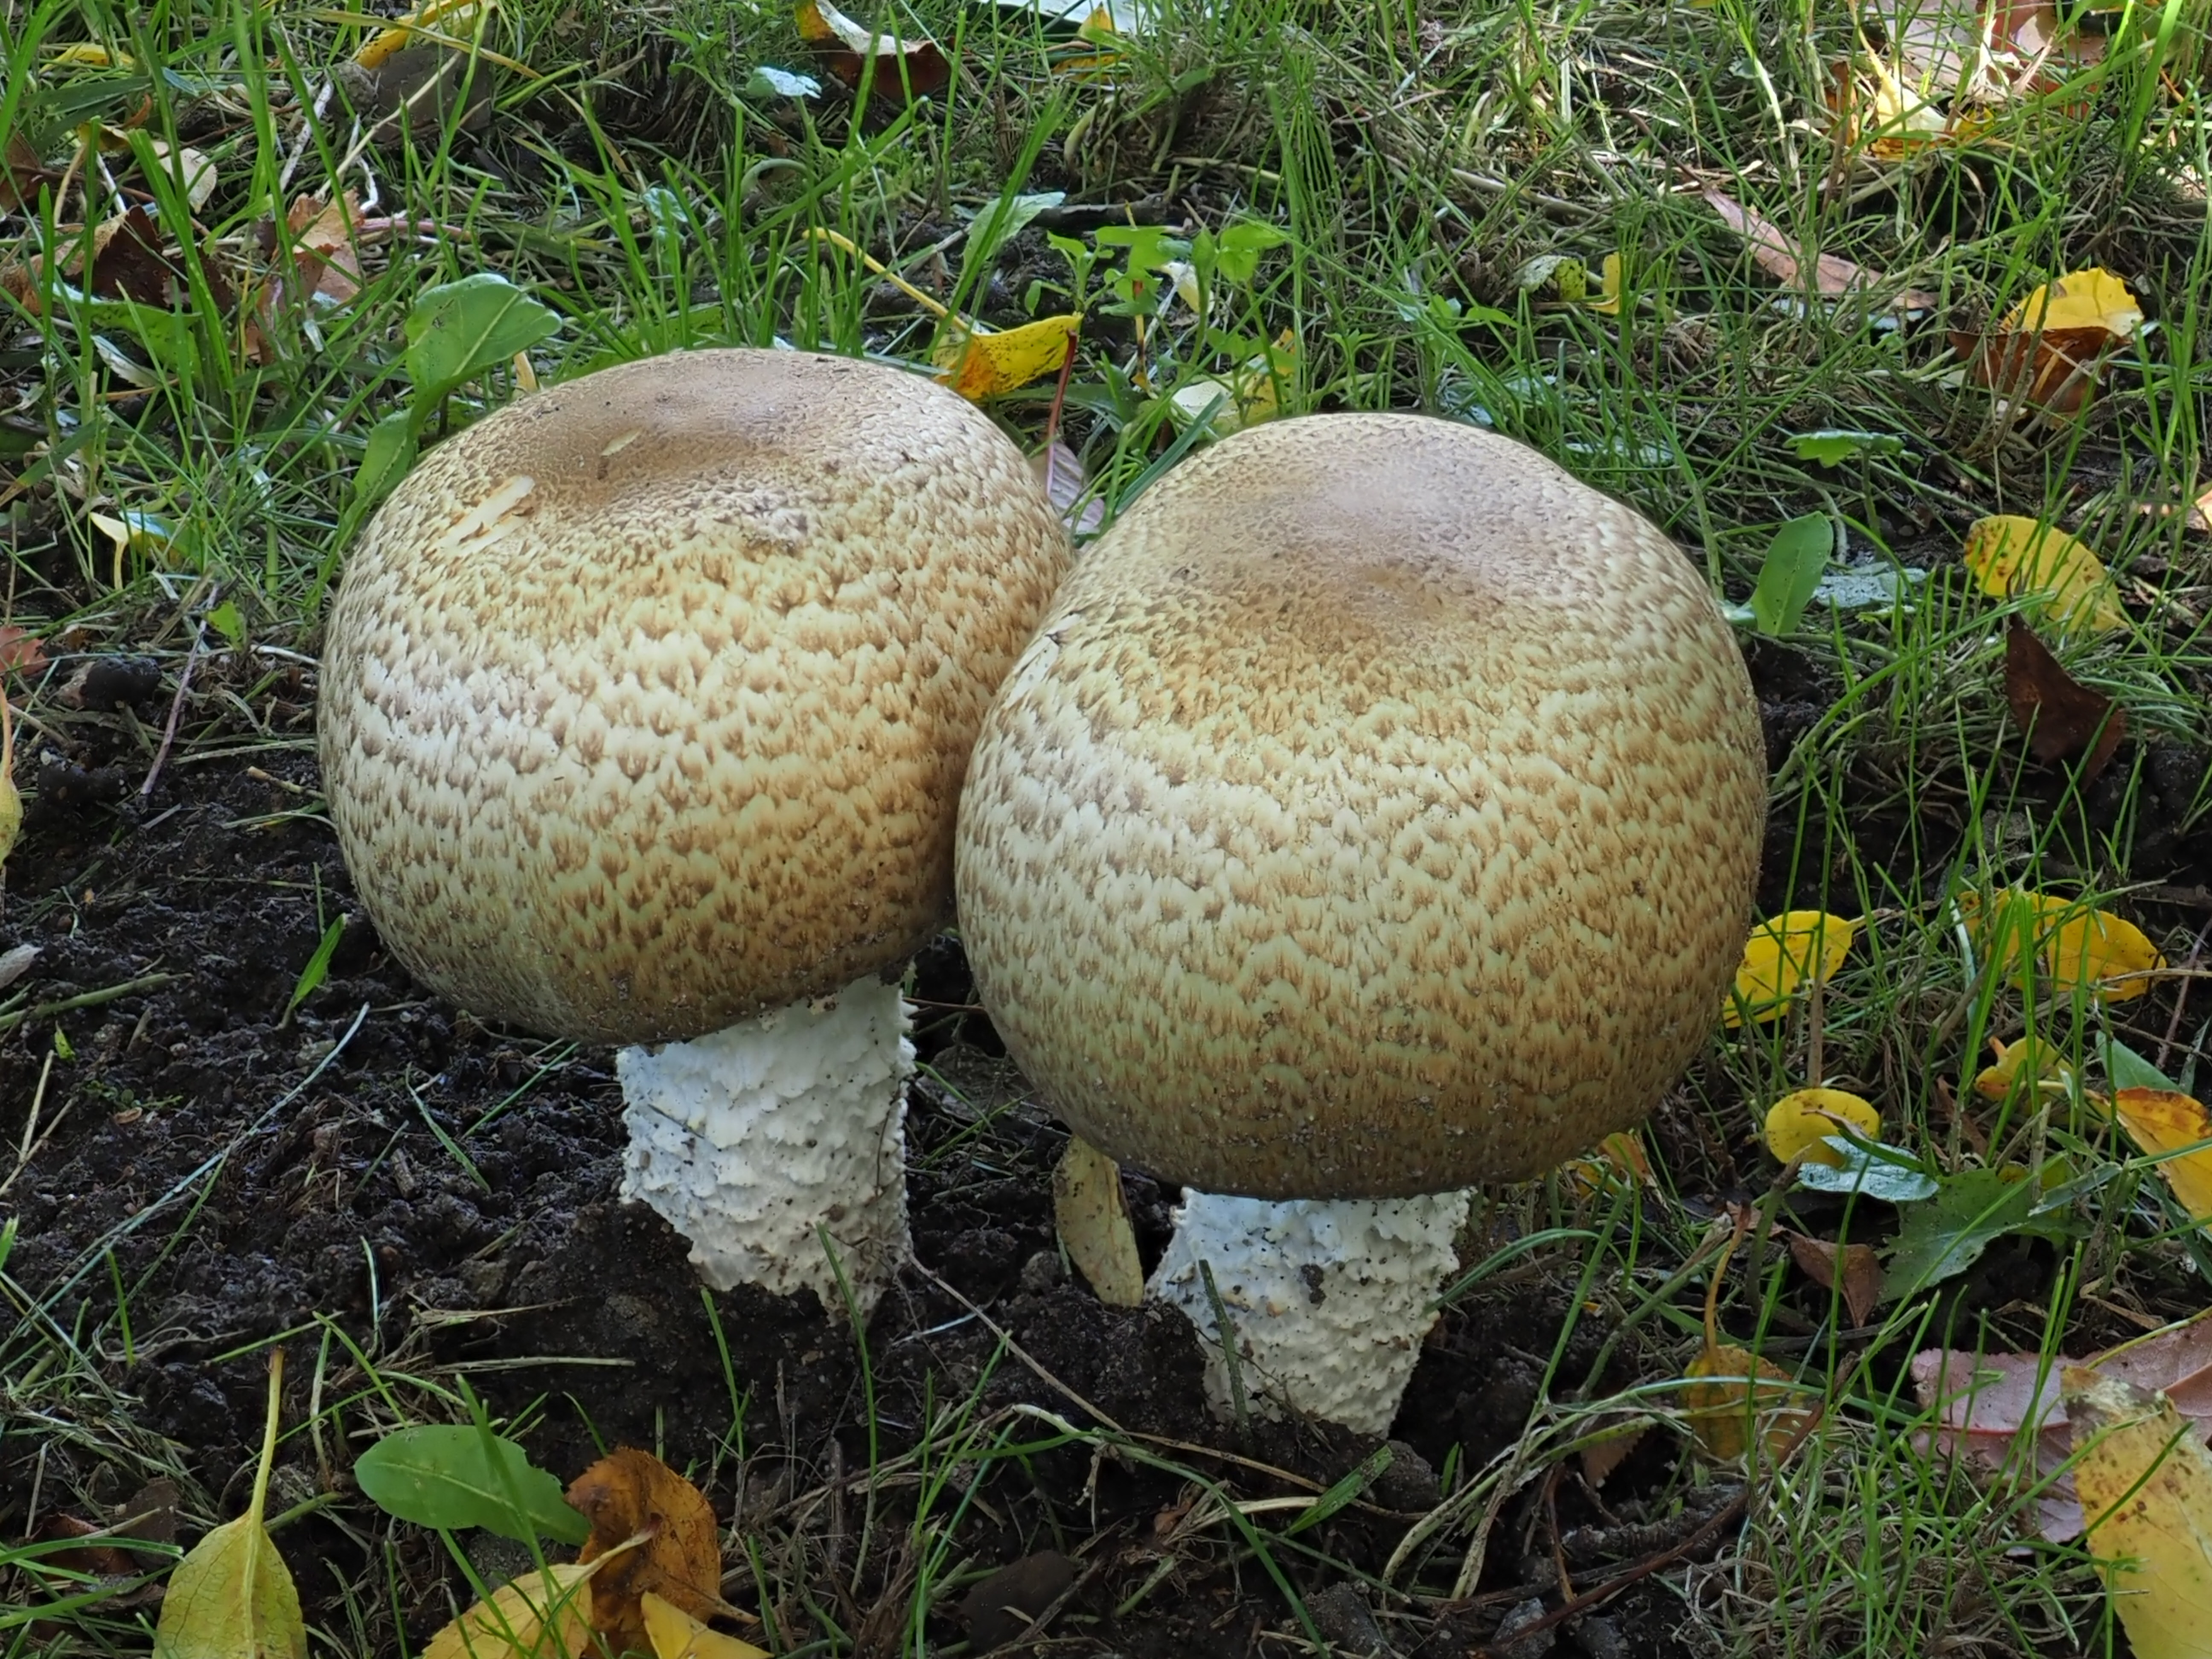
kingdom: Fungi
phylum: Basidiomycota
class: Agaricomycetes
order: Agaricales
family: Agaricaceae
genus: Agaricus
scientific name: Agaricus augustus
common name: Prince
